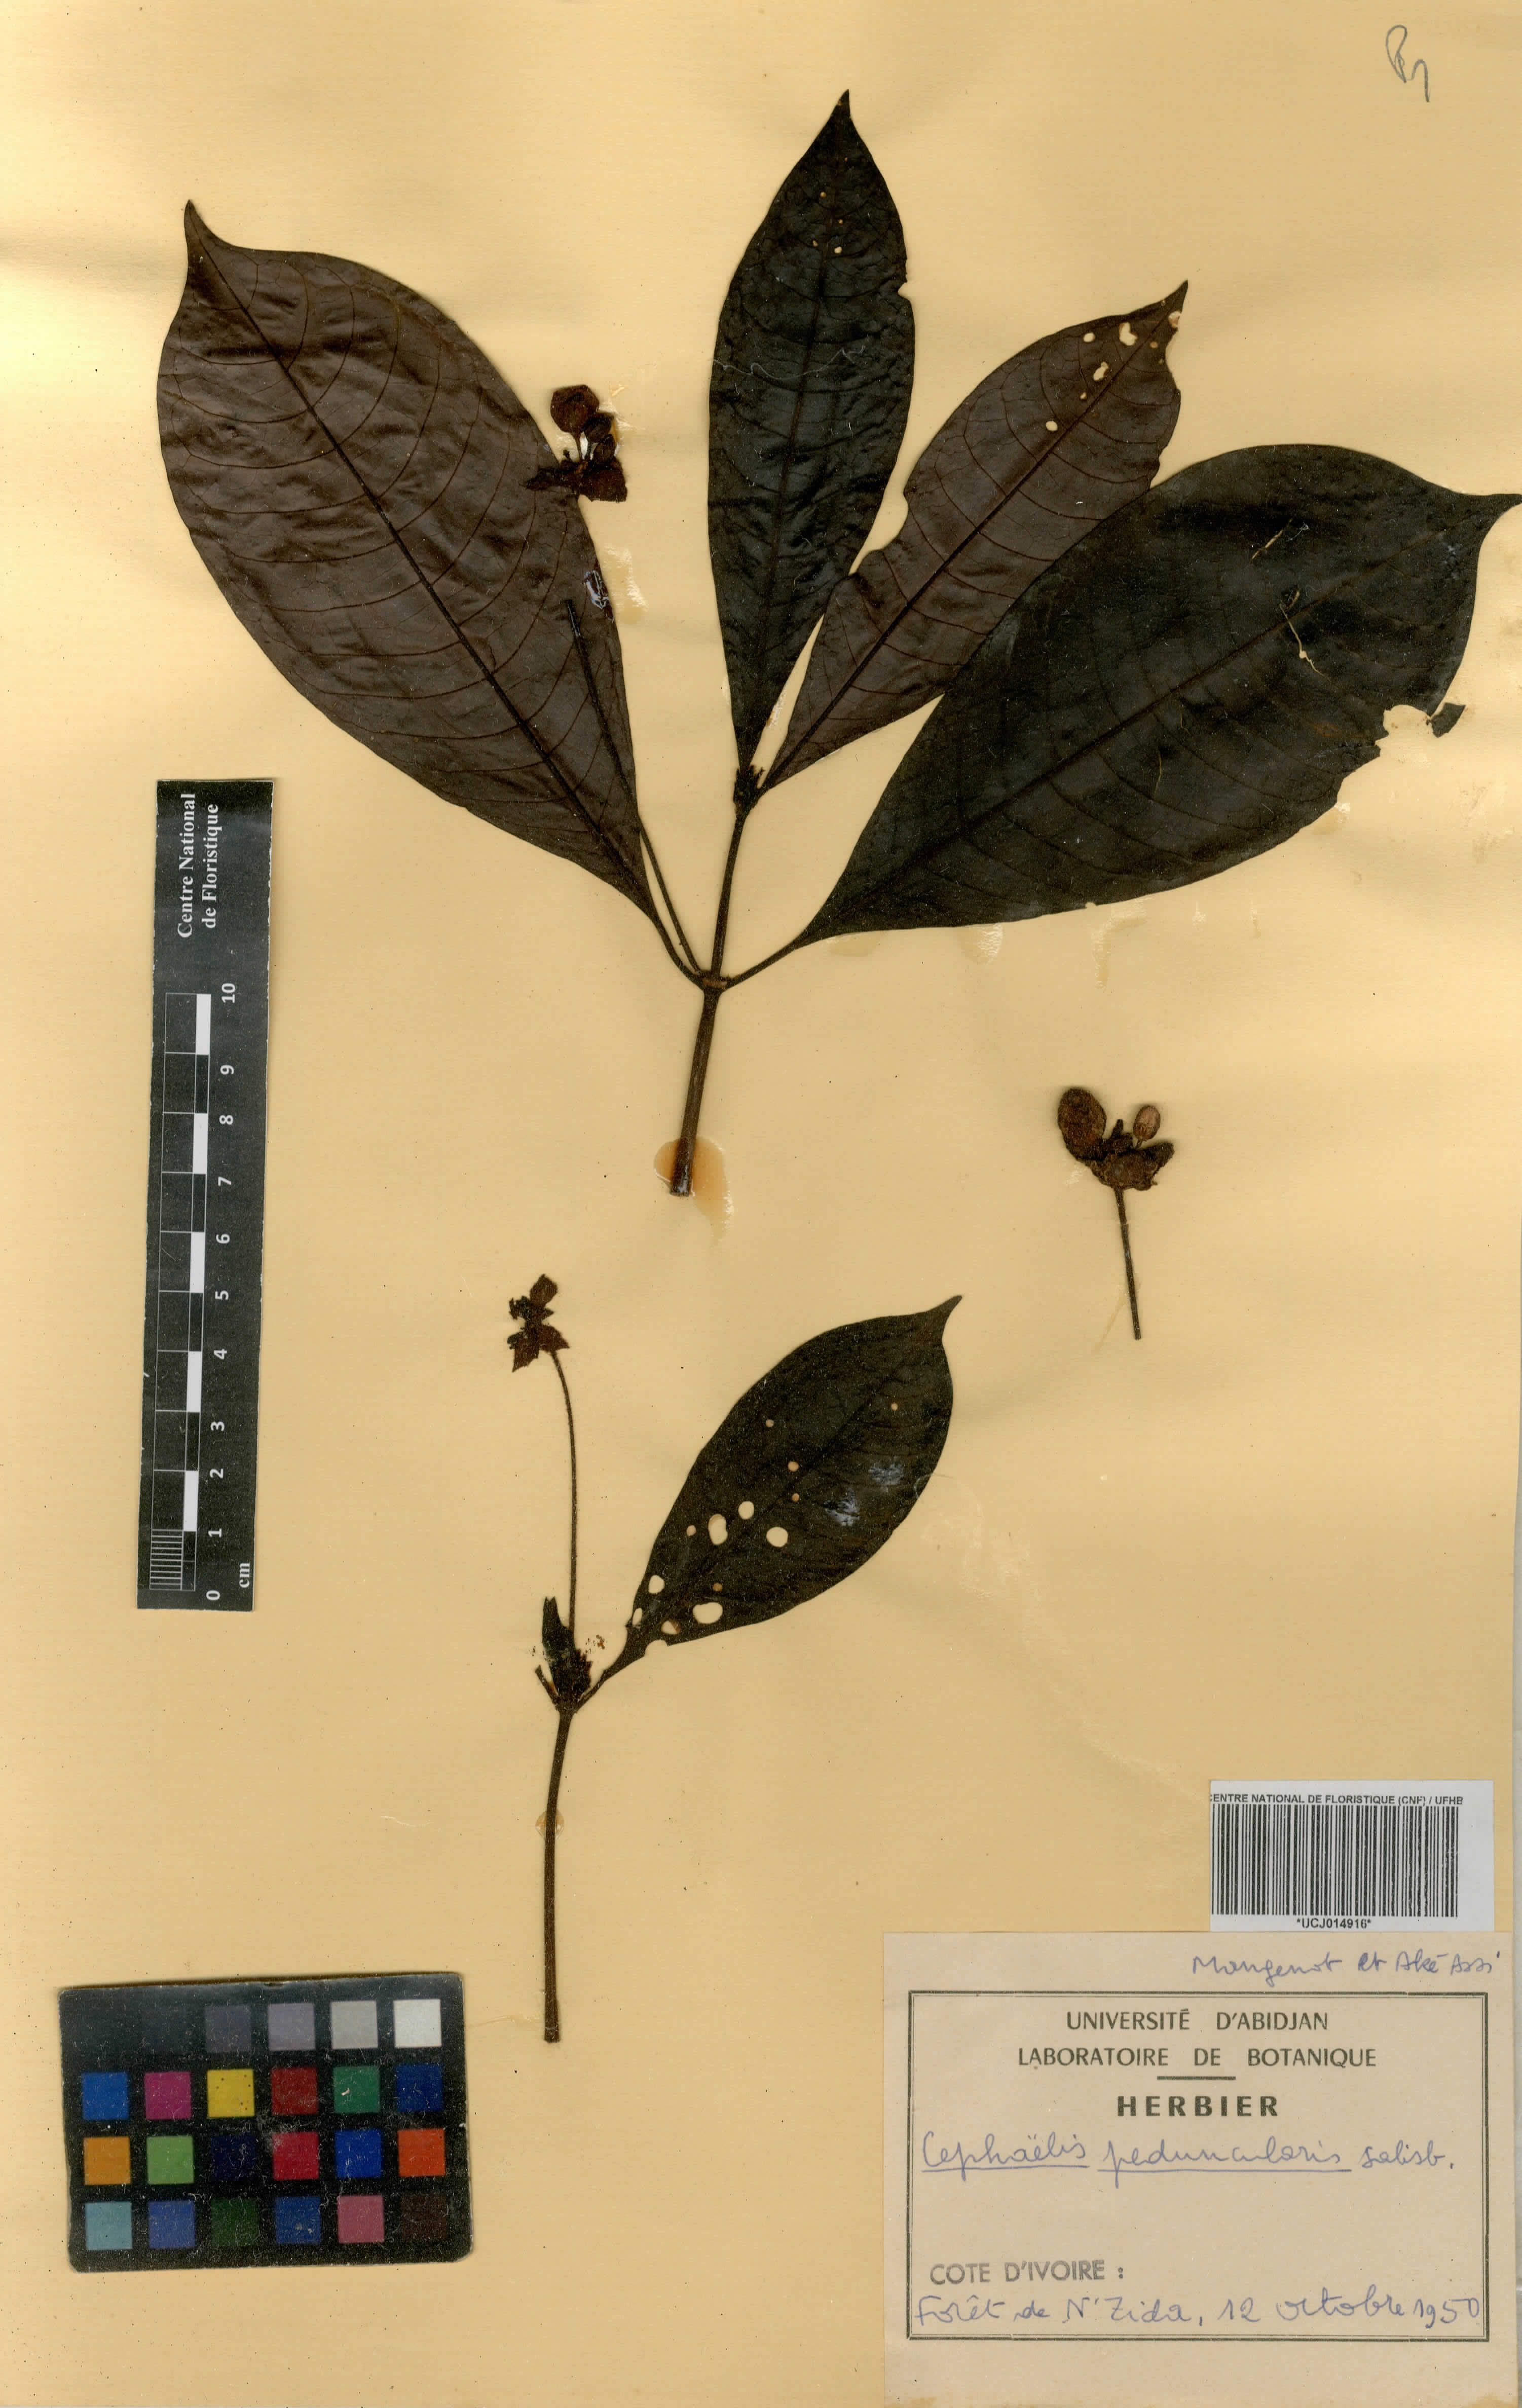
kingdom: Plantae
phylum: Tracheophyta
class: Magnoliopsida
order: Gentianales
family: Rubiaceae
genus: Psychotria
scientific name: Psychotria peduncularis
